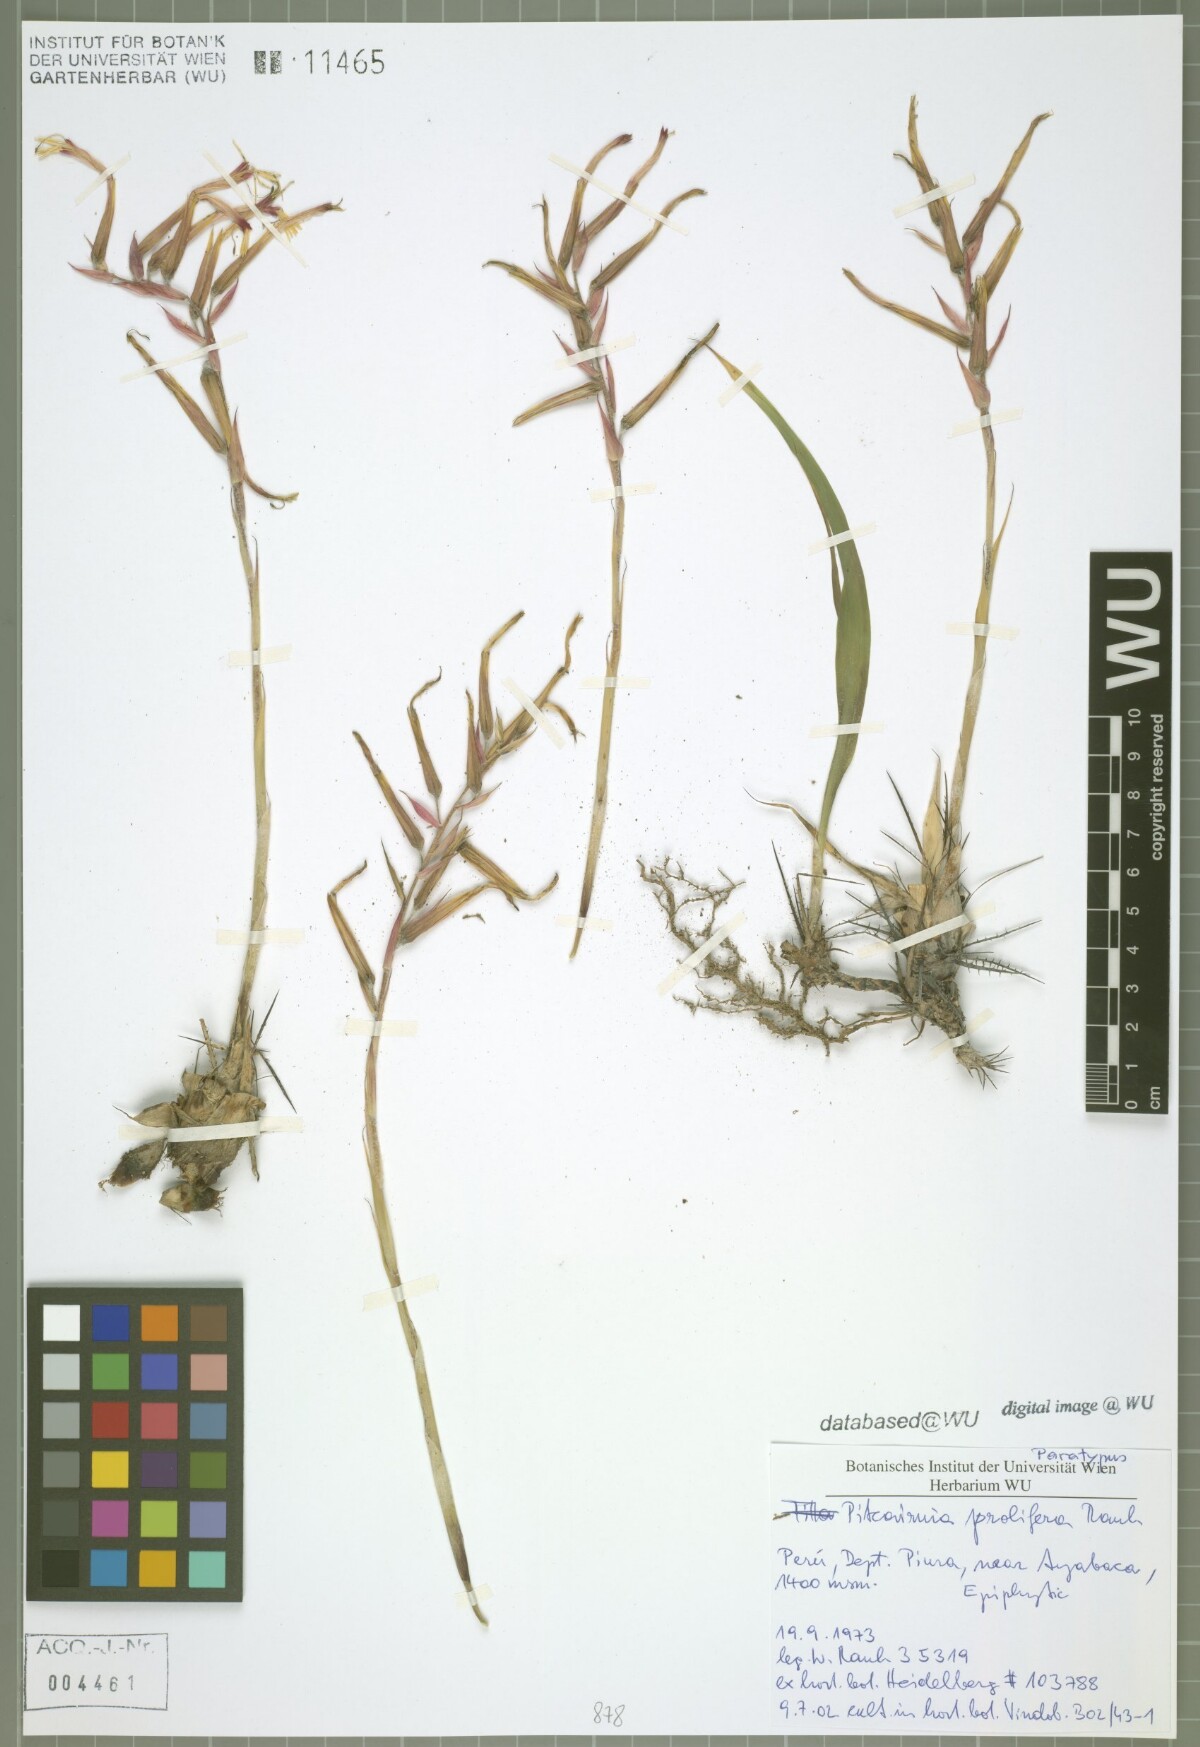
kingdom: Plantae
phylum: Tracheophyta
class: Liliopsida
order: Poales
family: Bromeliaceae
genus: Pitcairnia
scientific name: Pitcairnia prolifera
